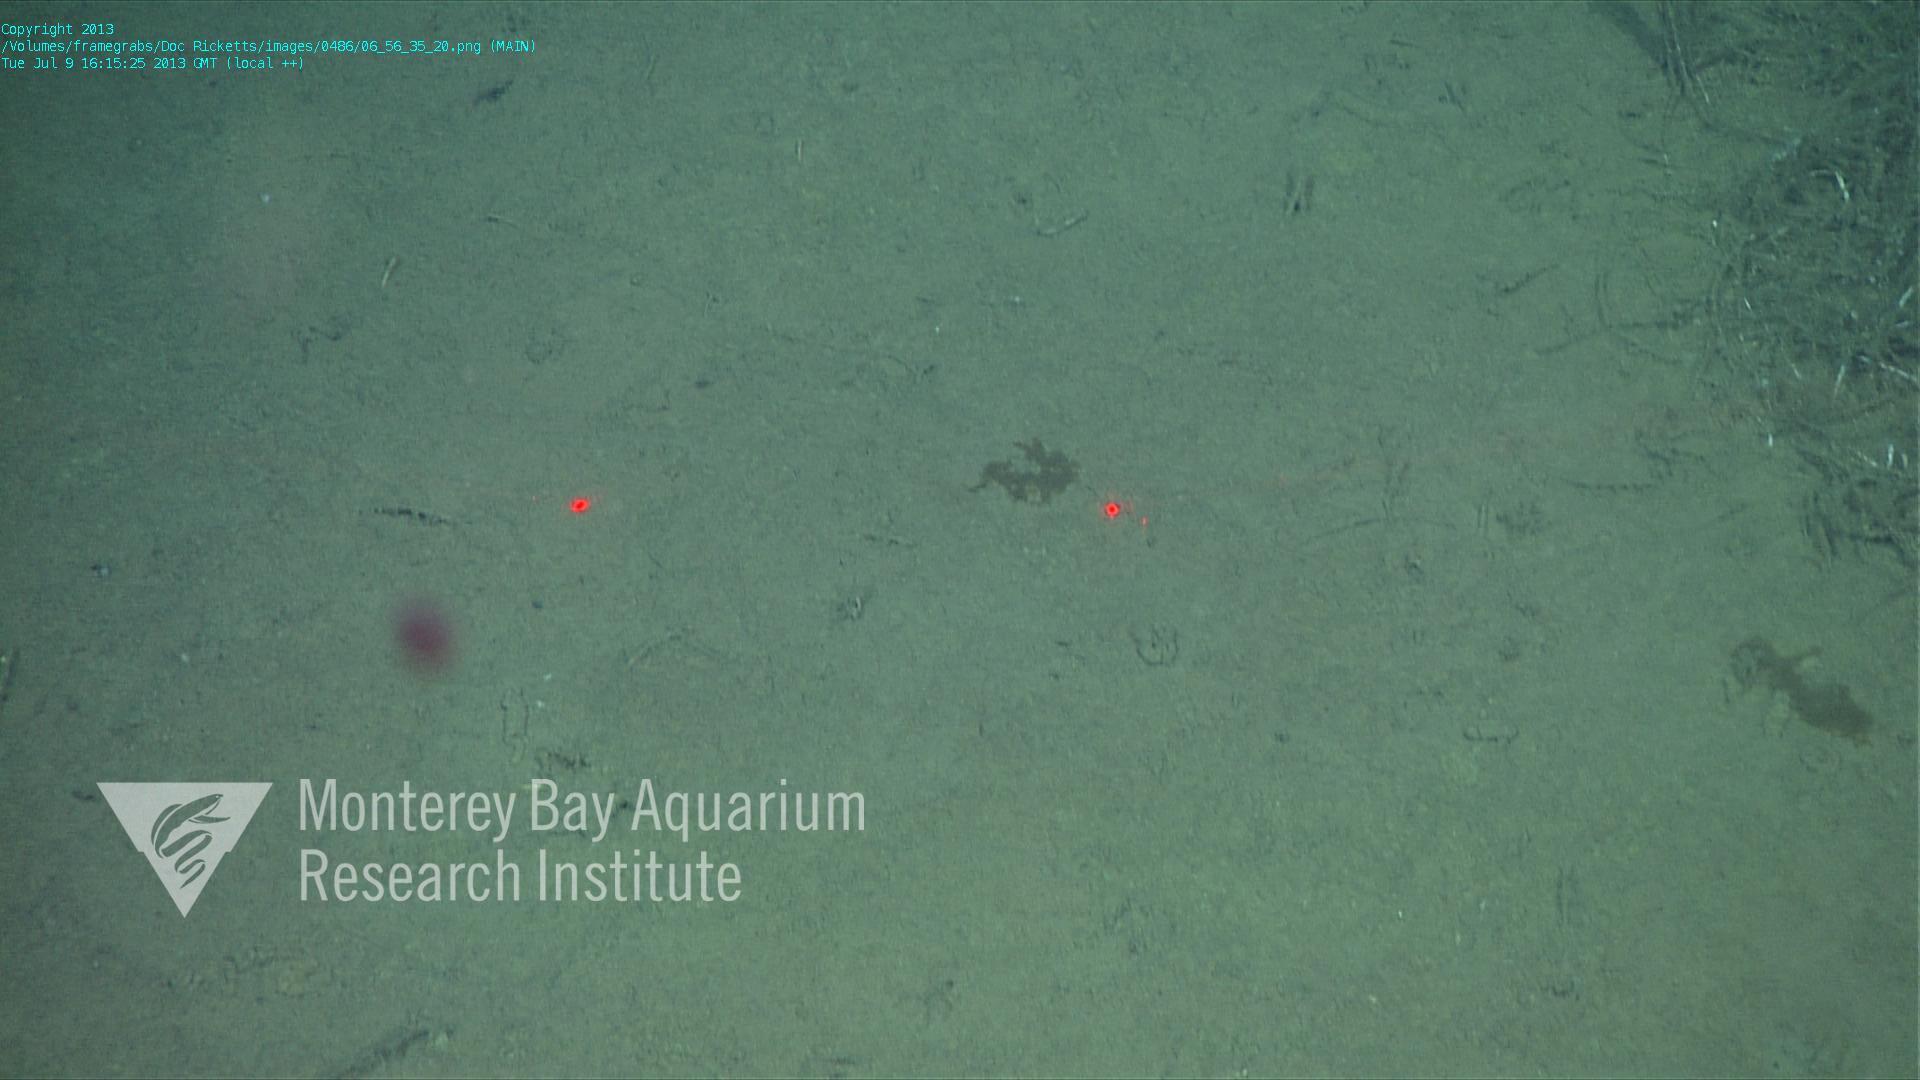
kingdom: Animalia
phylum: Porifera
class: Demospongiae
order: Poecilosclerida
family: Cladorhizidae
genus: Cladorhiza
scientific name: Cladorhiza
